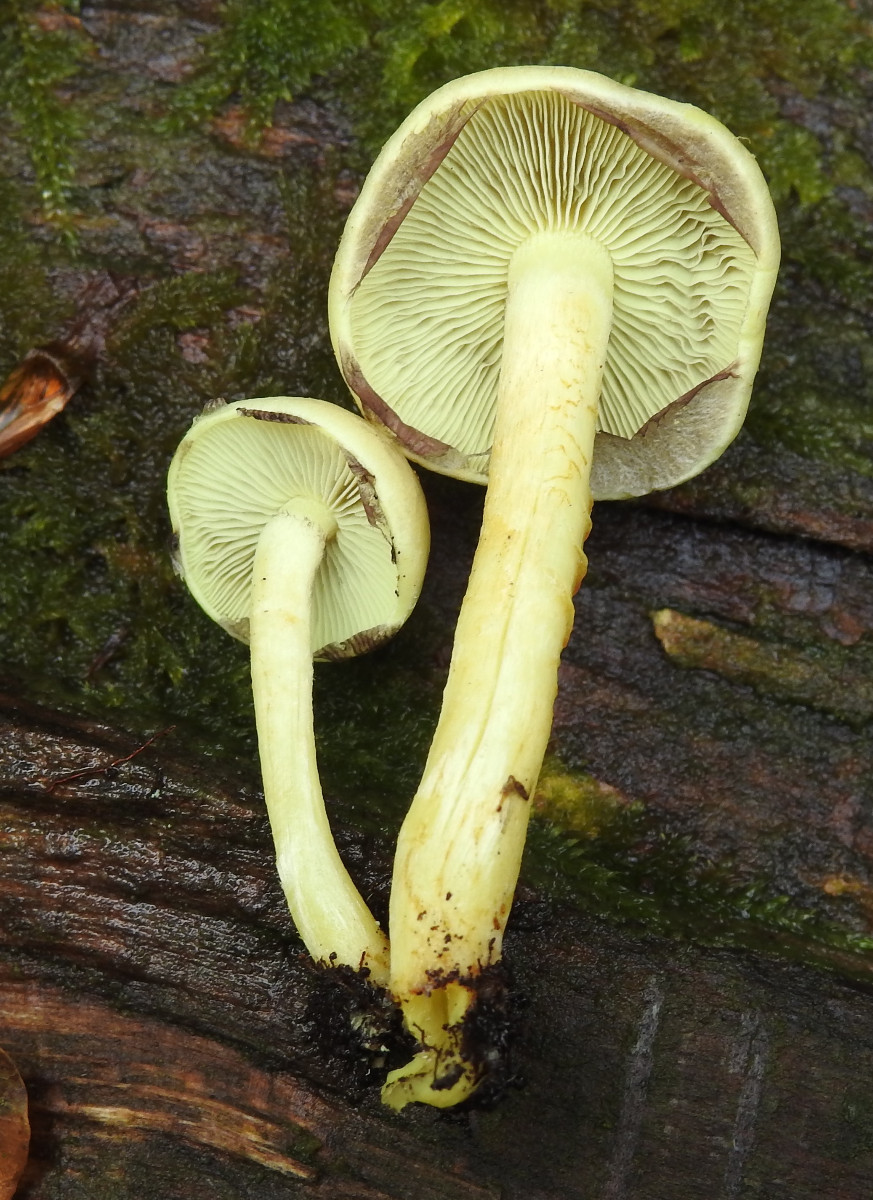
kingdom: Fungi
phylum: Basidiomycota
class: Agaricomycetes
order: Agaricales
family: Strophariaceae
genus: Hypholoma
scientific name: Hypholoma fasciculare
